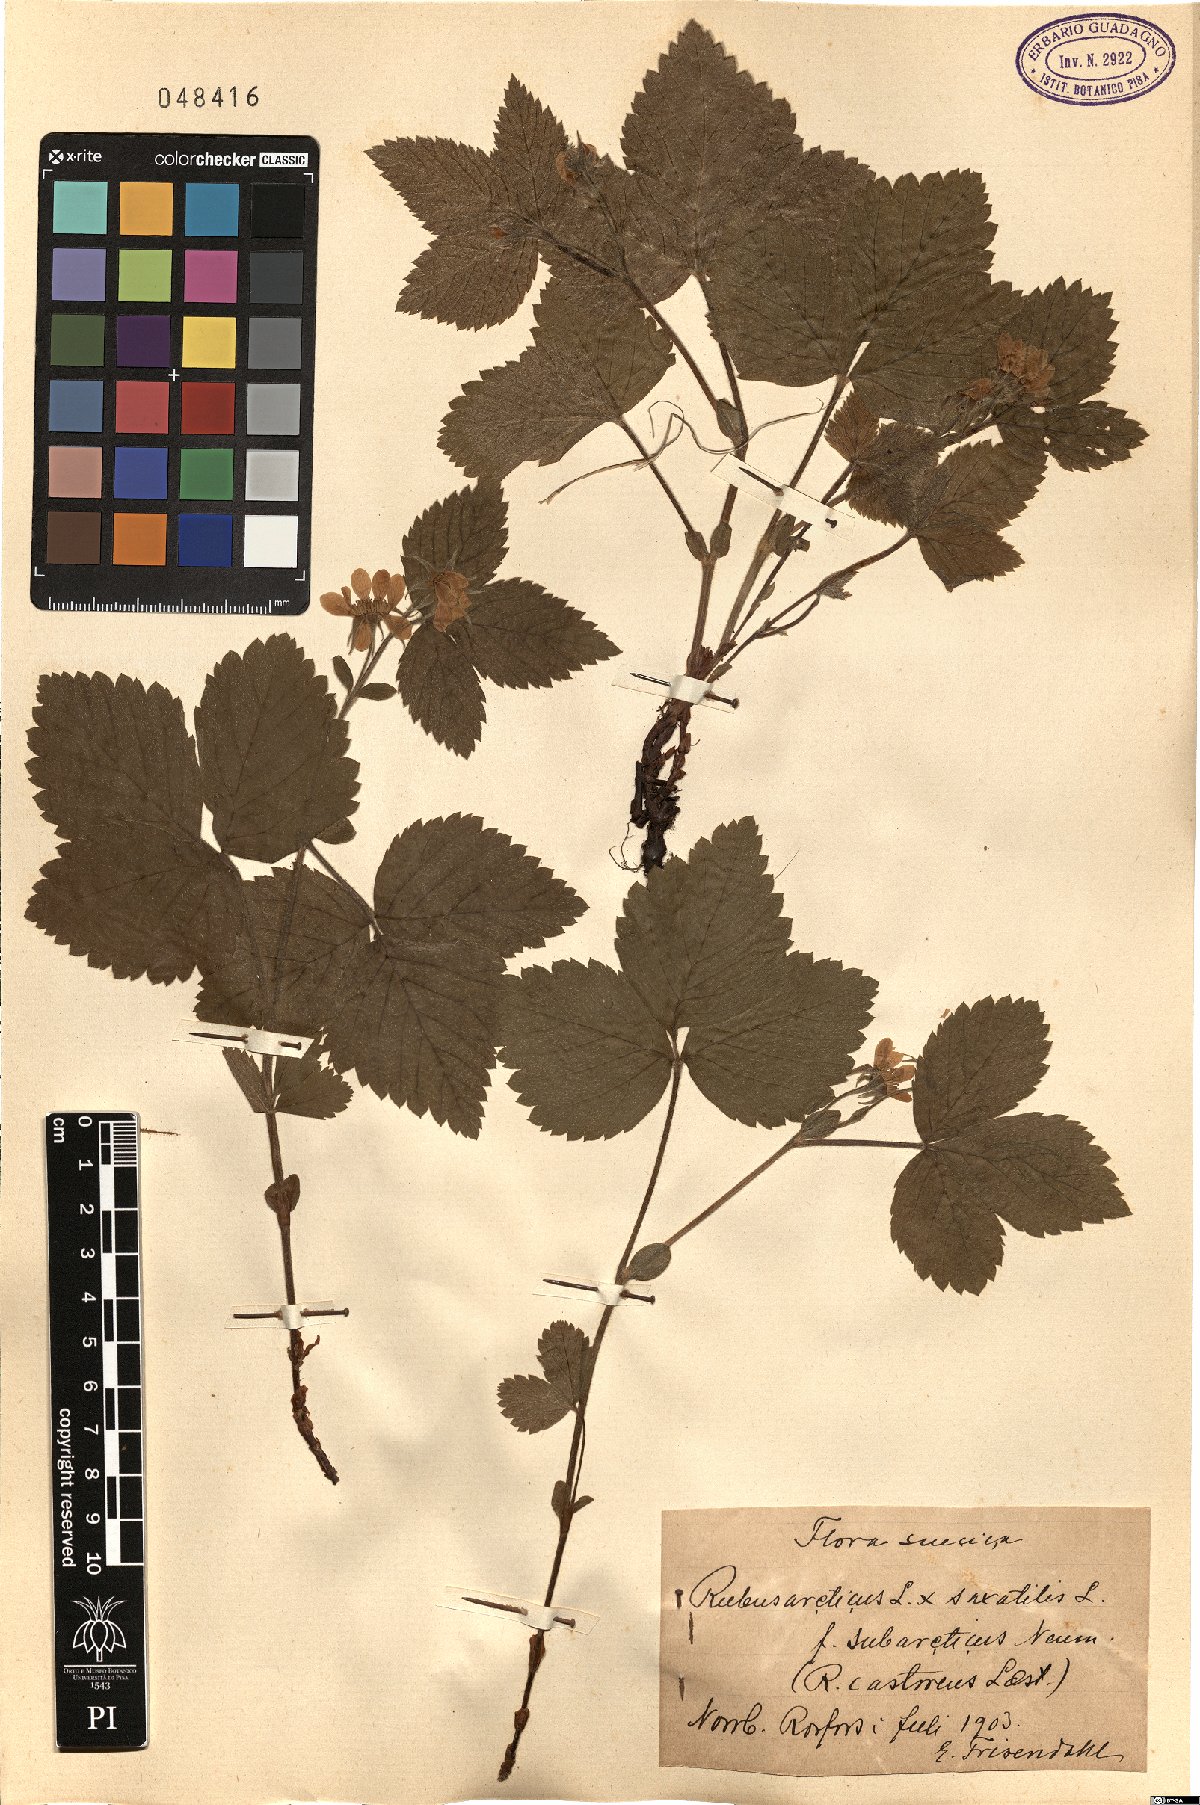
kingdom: Plantae
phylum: Tracheophyta
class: Magnoliopsida
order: Rosales
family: Rosaceae
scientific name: Rosaceae
